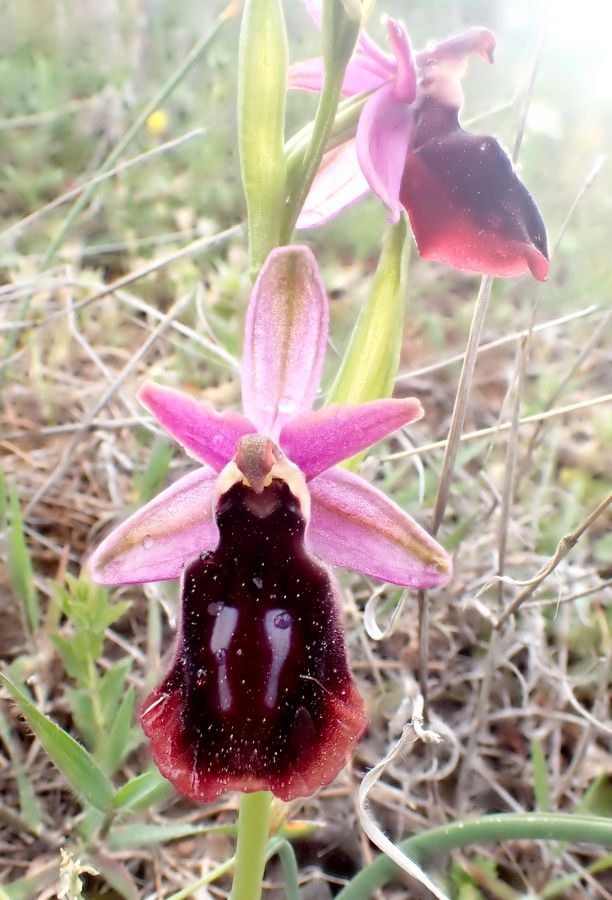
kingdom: Plantae
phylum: Tracheophyta
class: Liliopsida
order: Asparagales
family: Orchidaceae
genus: Ophrys
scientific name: Ophrys sphegodes
